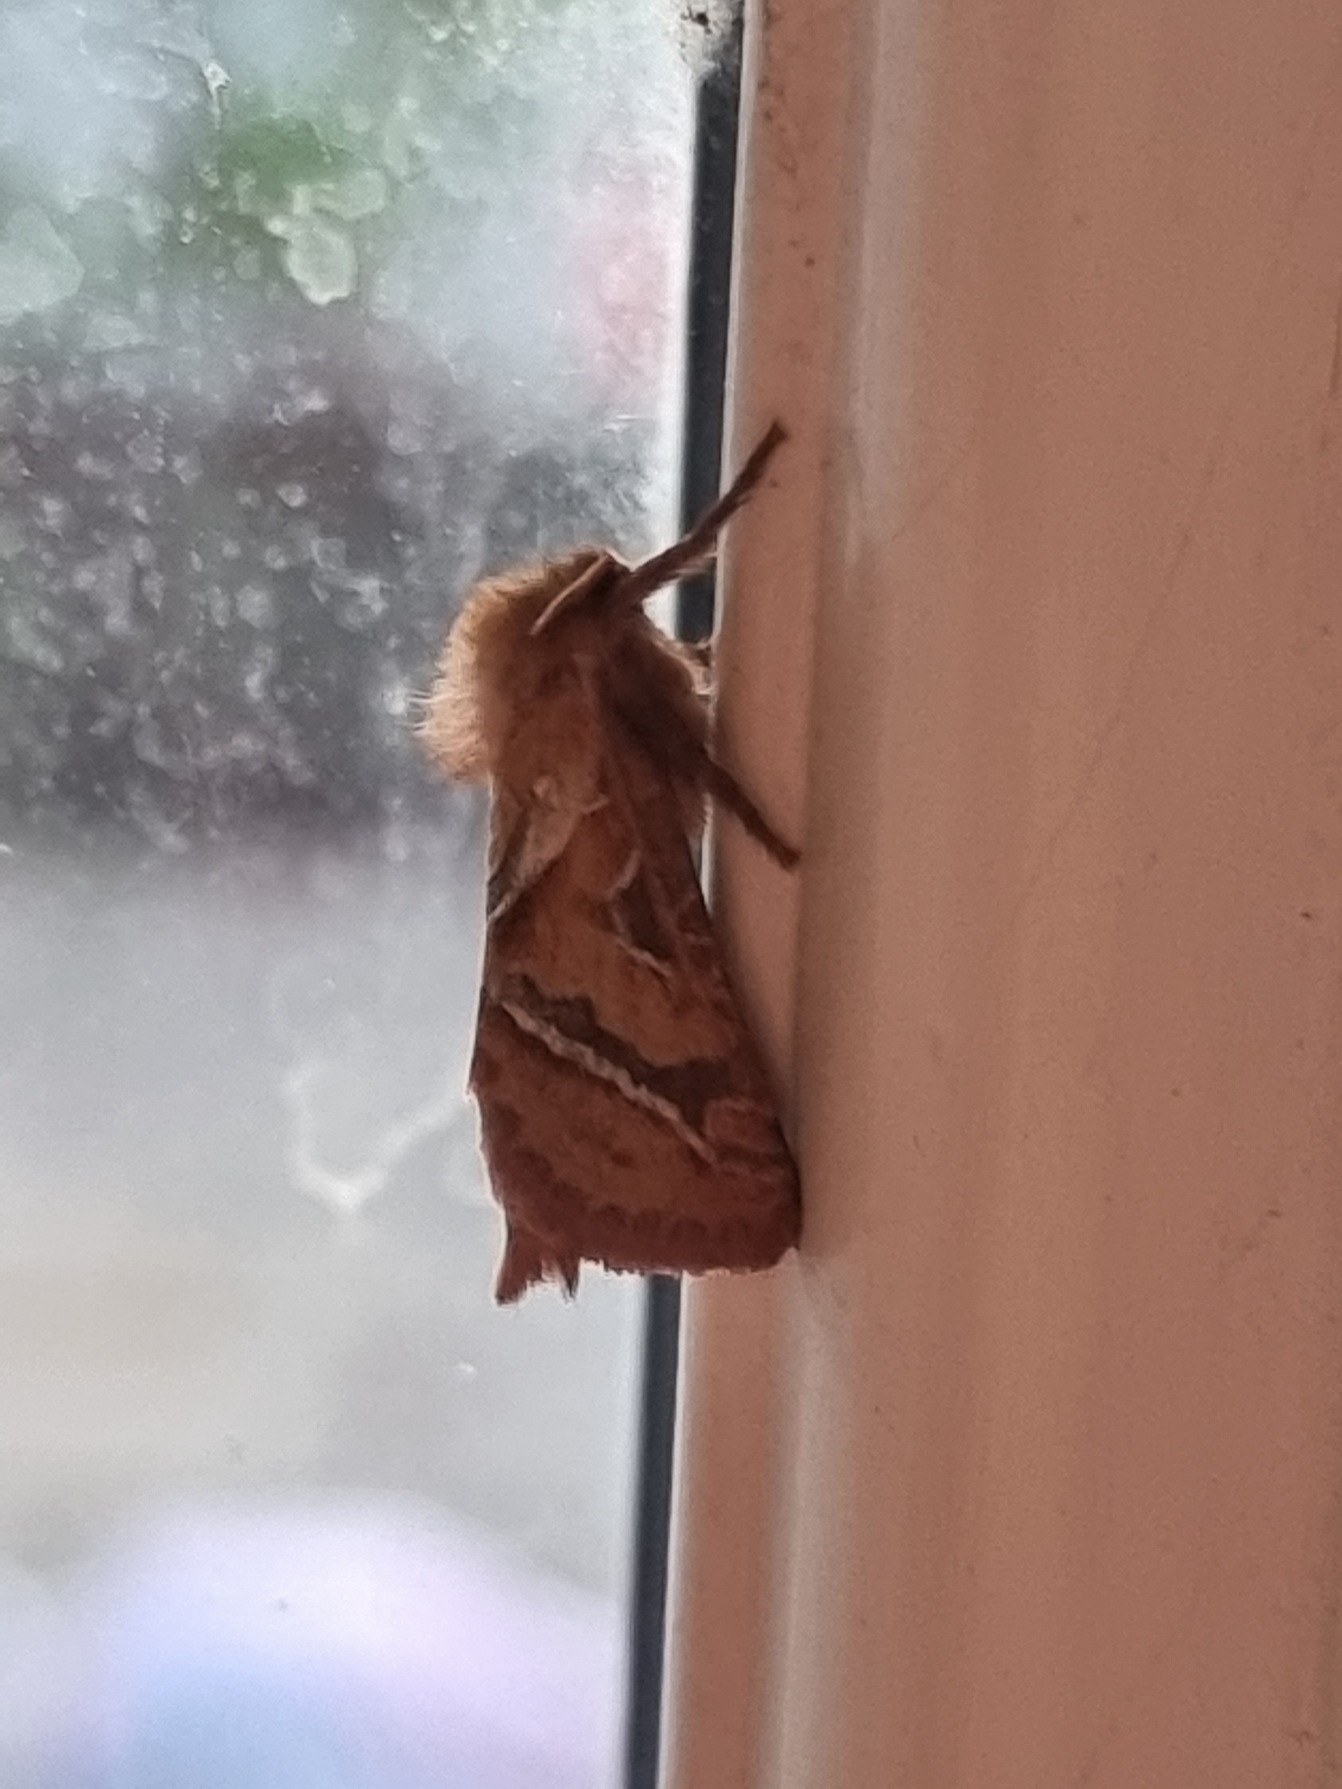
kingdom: Animalia
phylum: Arthropoda
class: Insecta
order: Lepidoptera
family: Hepialidae
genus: Triodia
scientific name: Triodia sylvina
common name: Skræpperodæder
